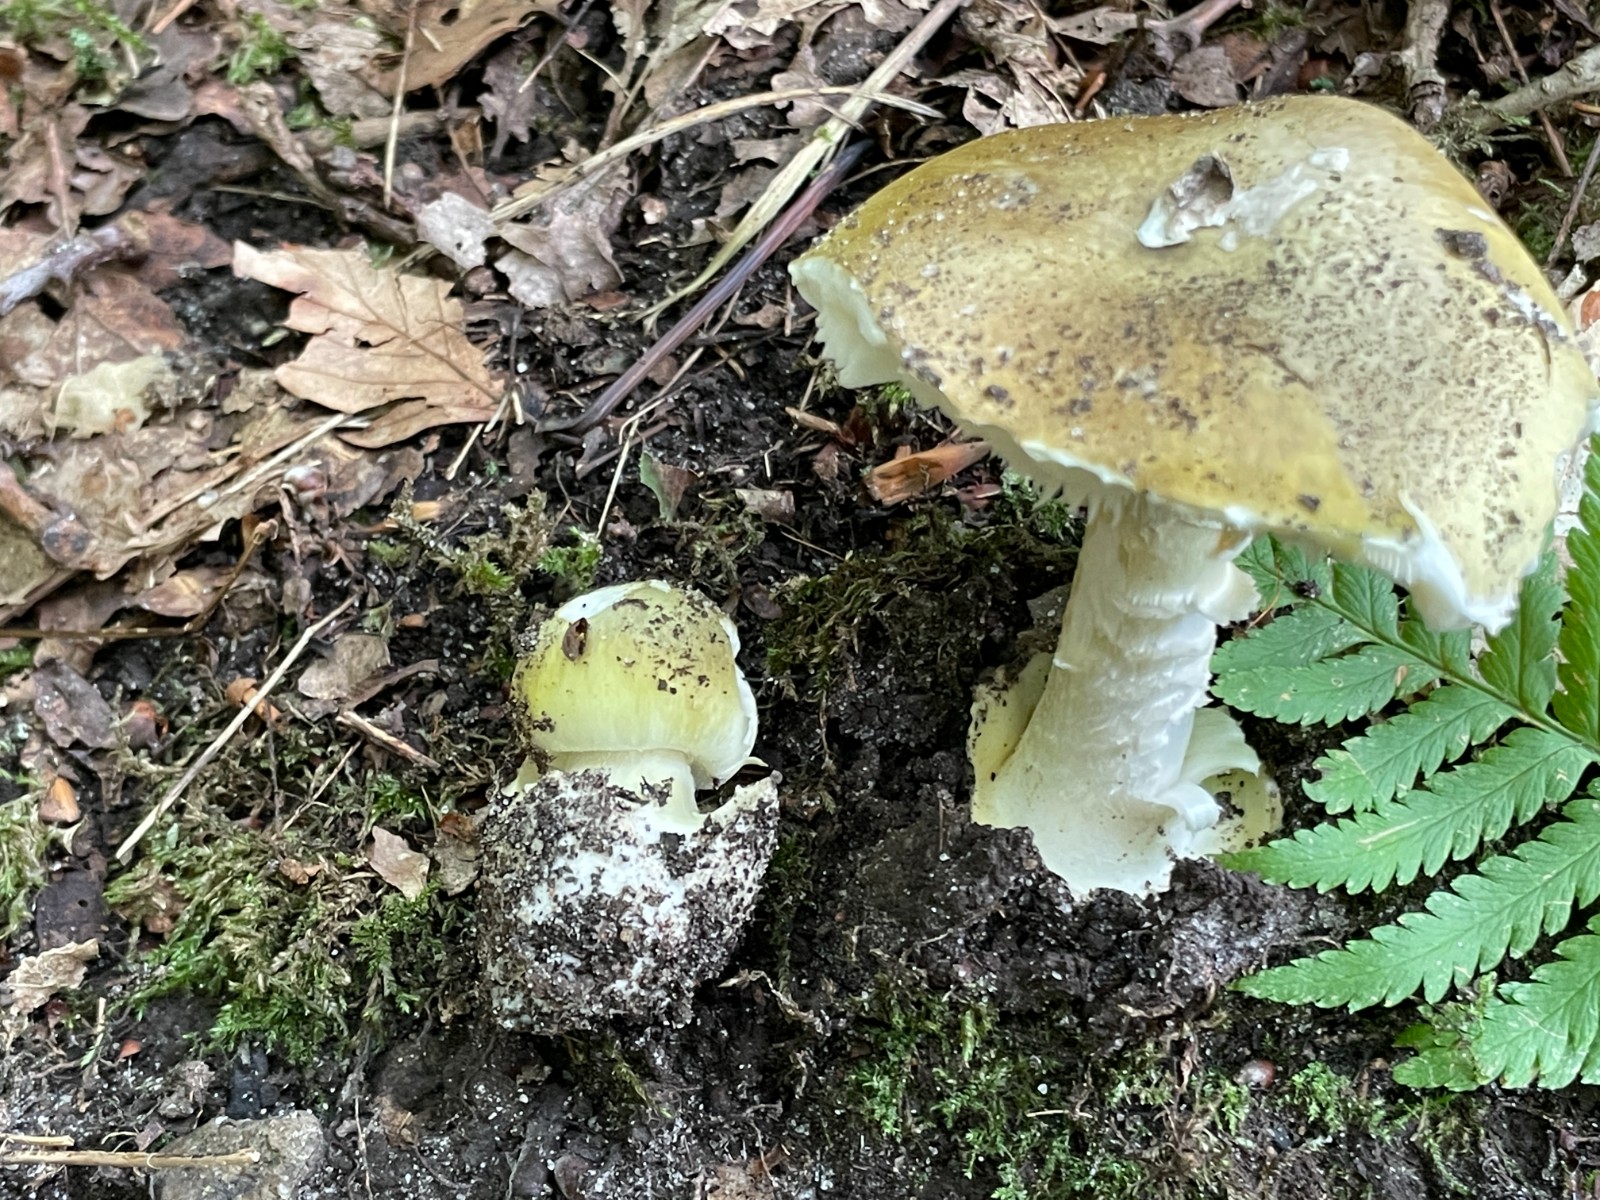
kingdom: Fungi
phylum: Basidiomycota
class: Agaricomycetes
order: Agaricales
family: Amanitaceae
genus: Amanita
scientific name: Amanita phalloides
